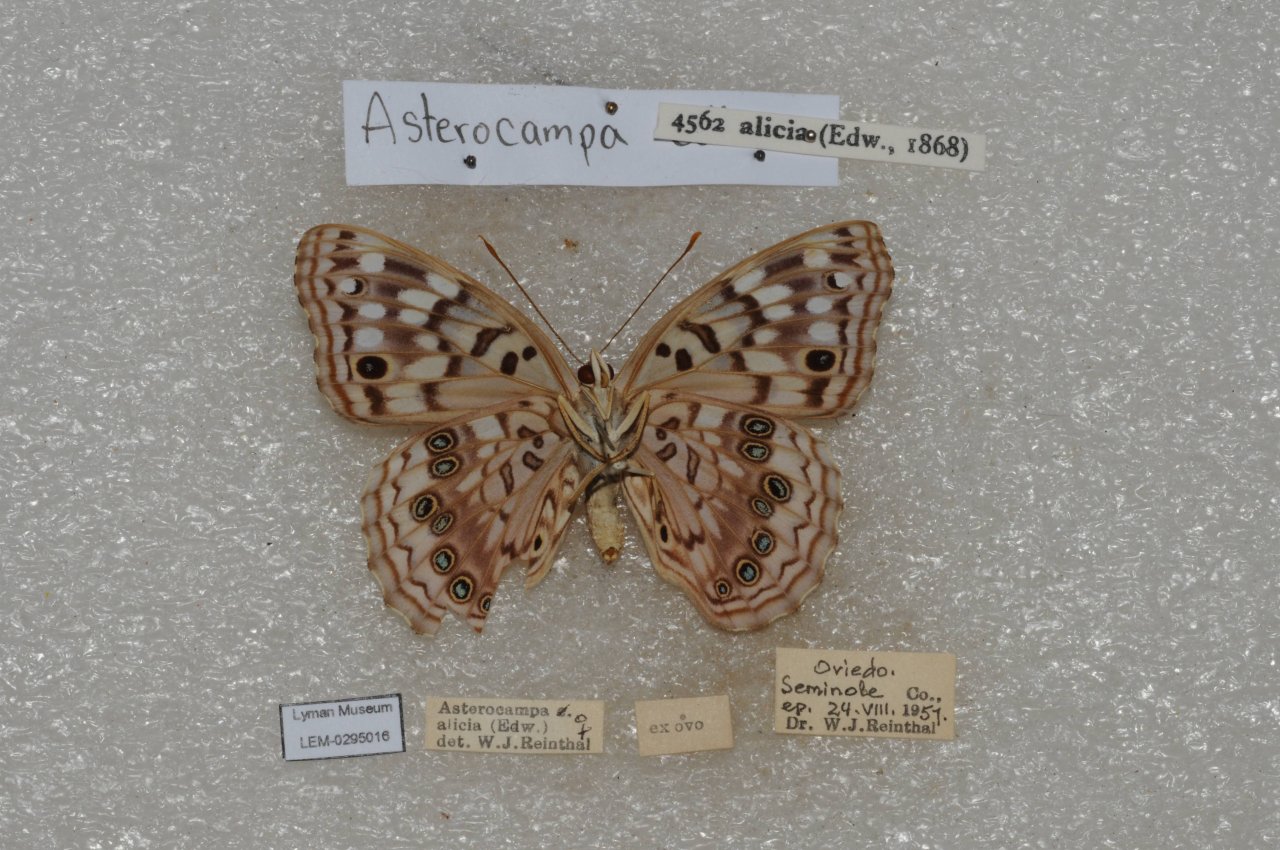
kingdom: Animalia
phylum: Arthropoda
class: Insecta
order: Lepidoptera
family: Nymphalidae
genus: Asterocampa
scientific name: Asterocampa celtis
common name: Hackberry Emperor
